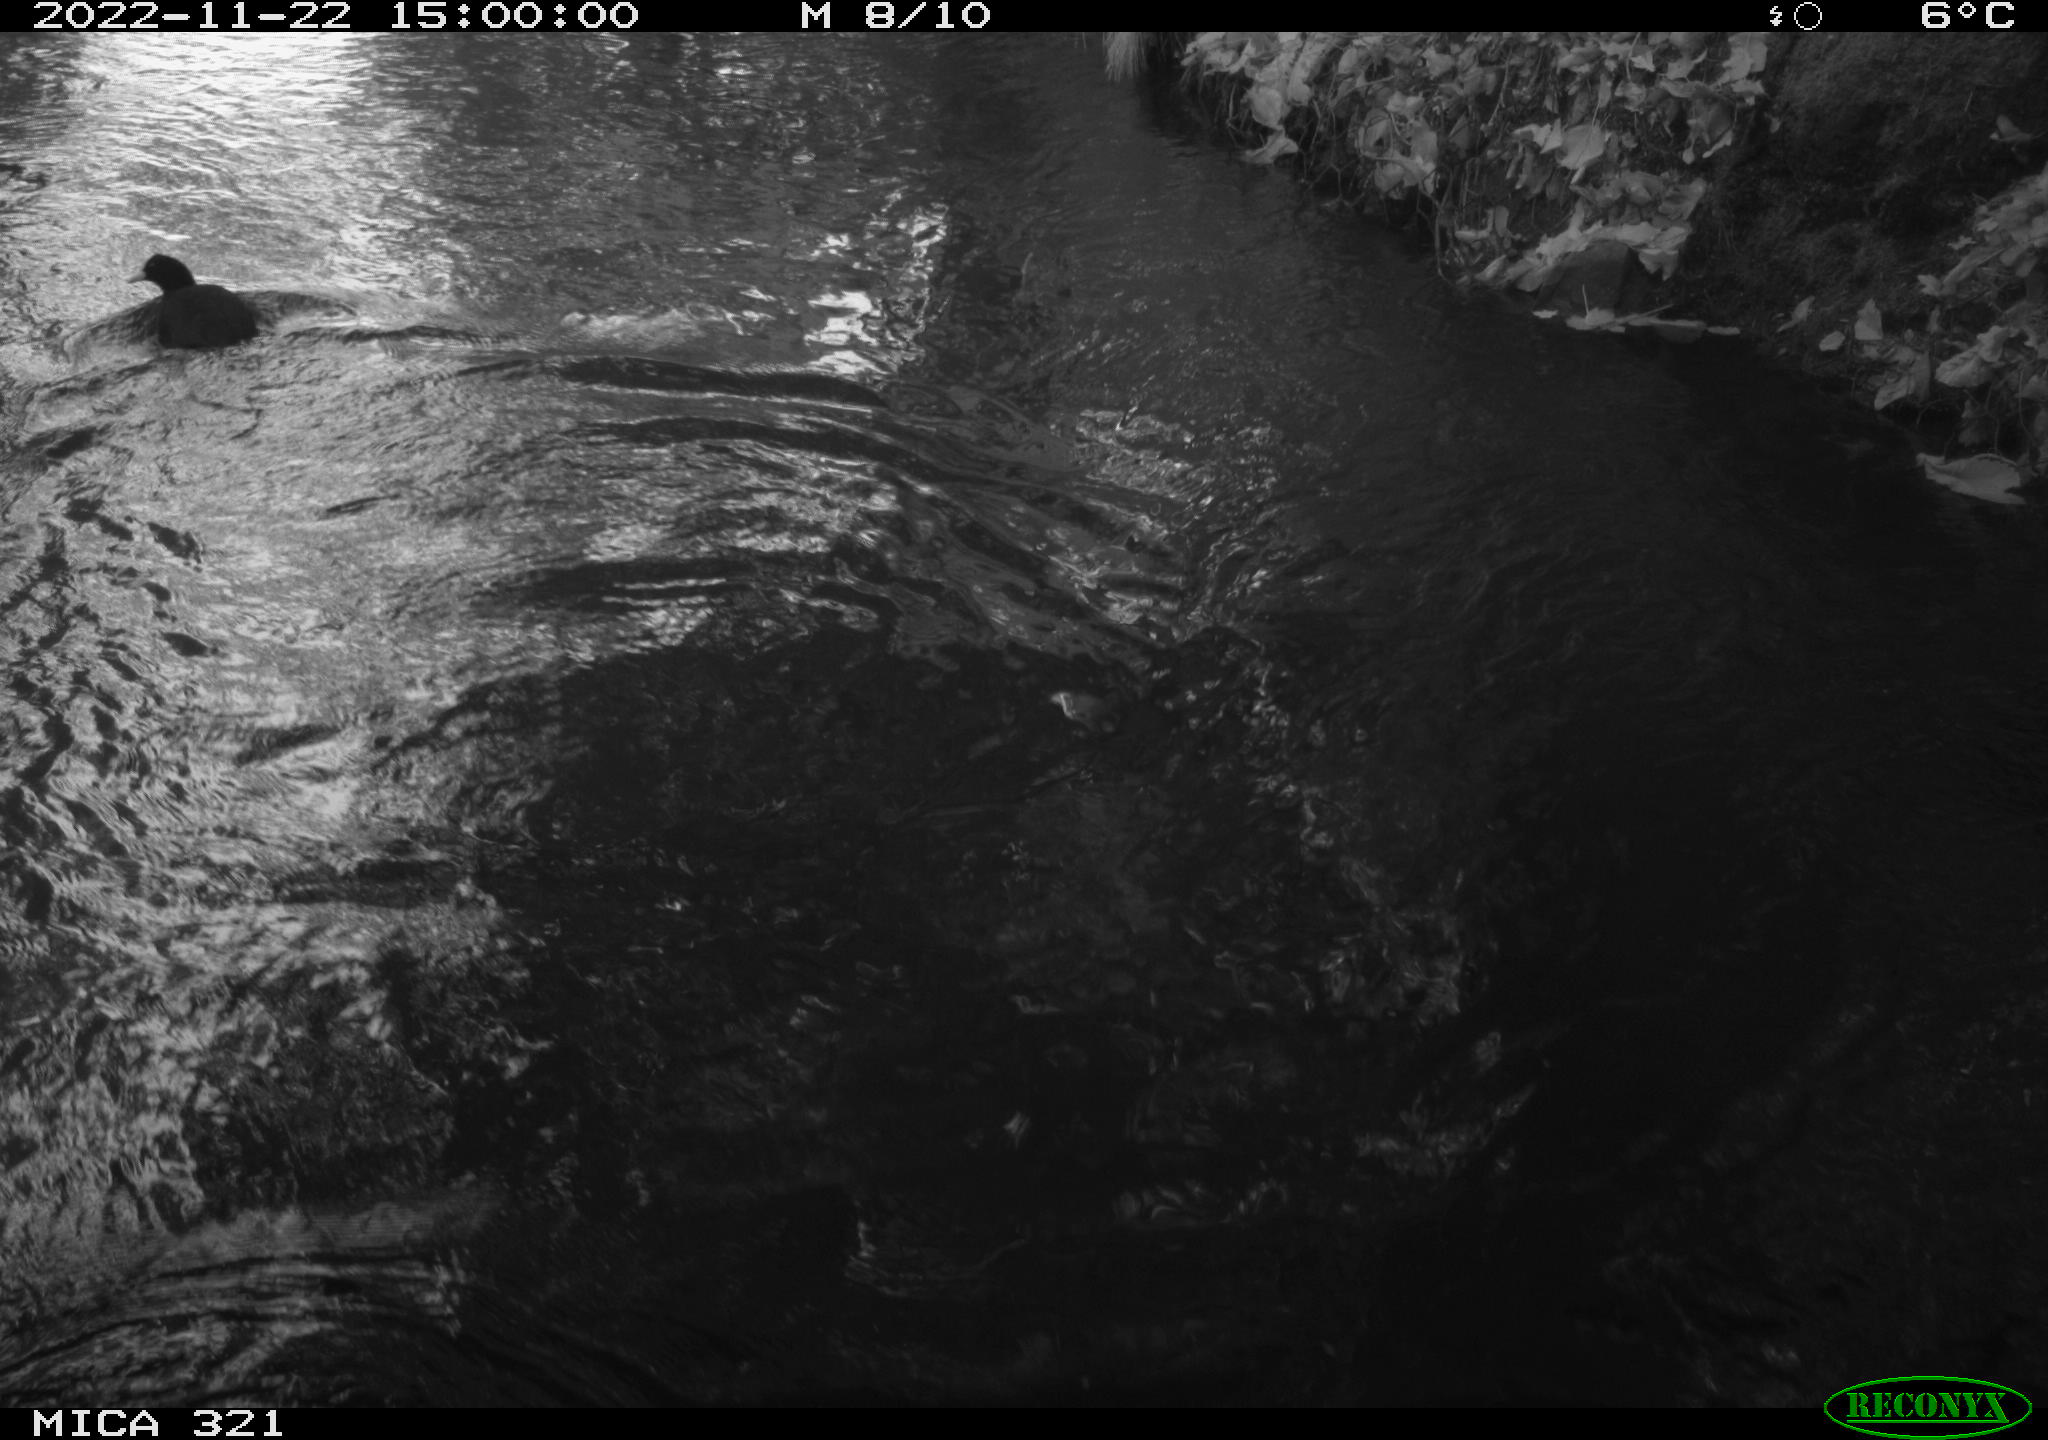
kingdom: Animalia
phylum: Chordata
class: Aves
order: Gruiformes
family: Rallidae
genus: Fulica
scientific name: Fulica atra
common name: Eurasian coot
